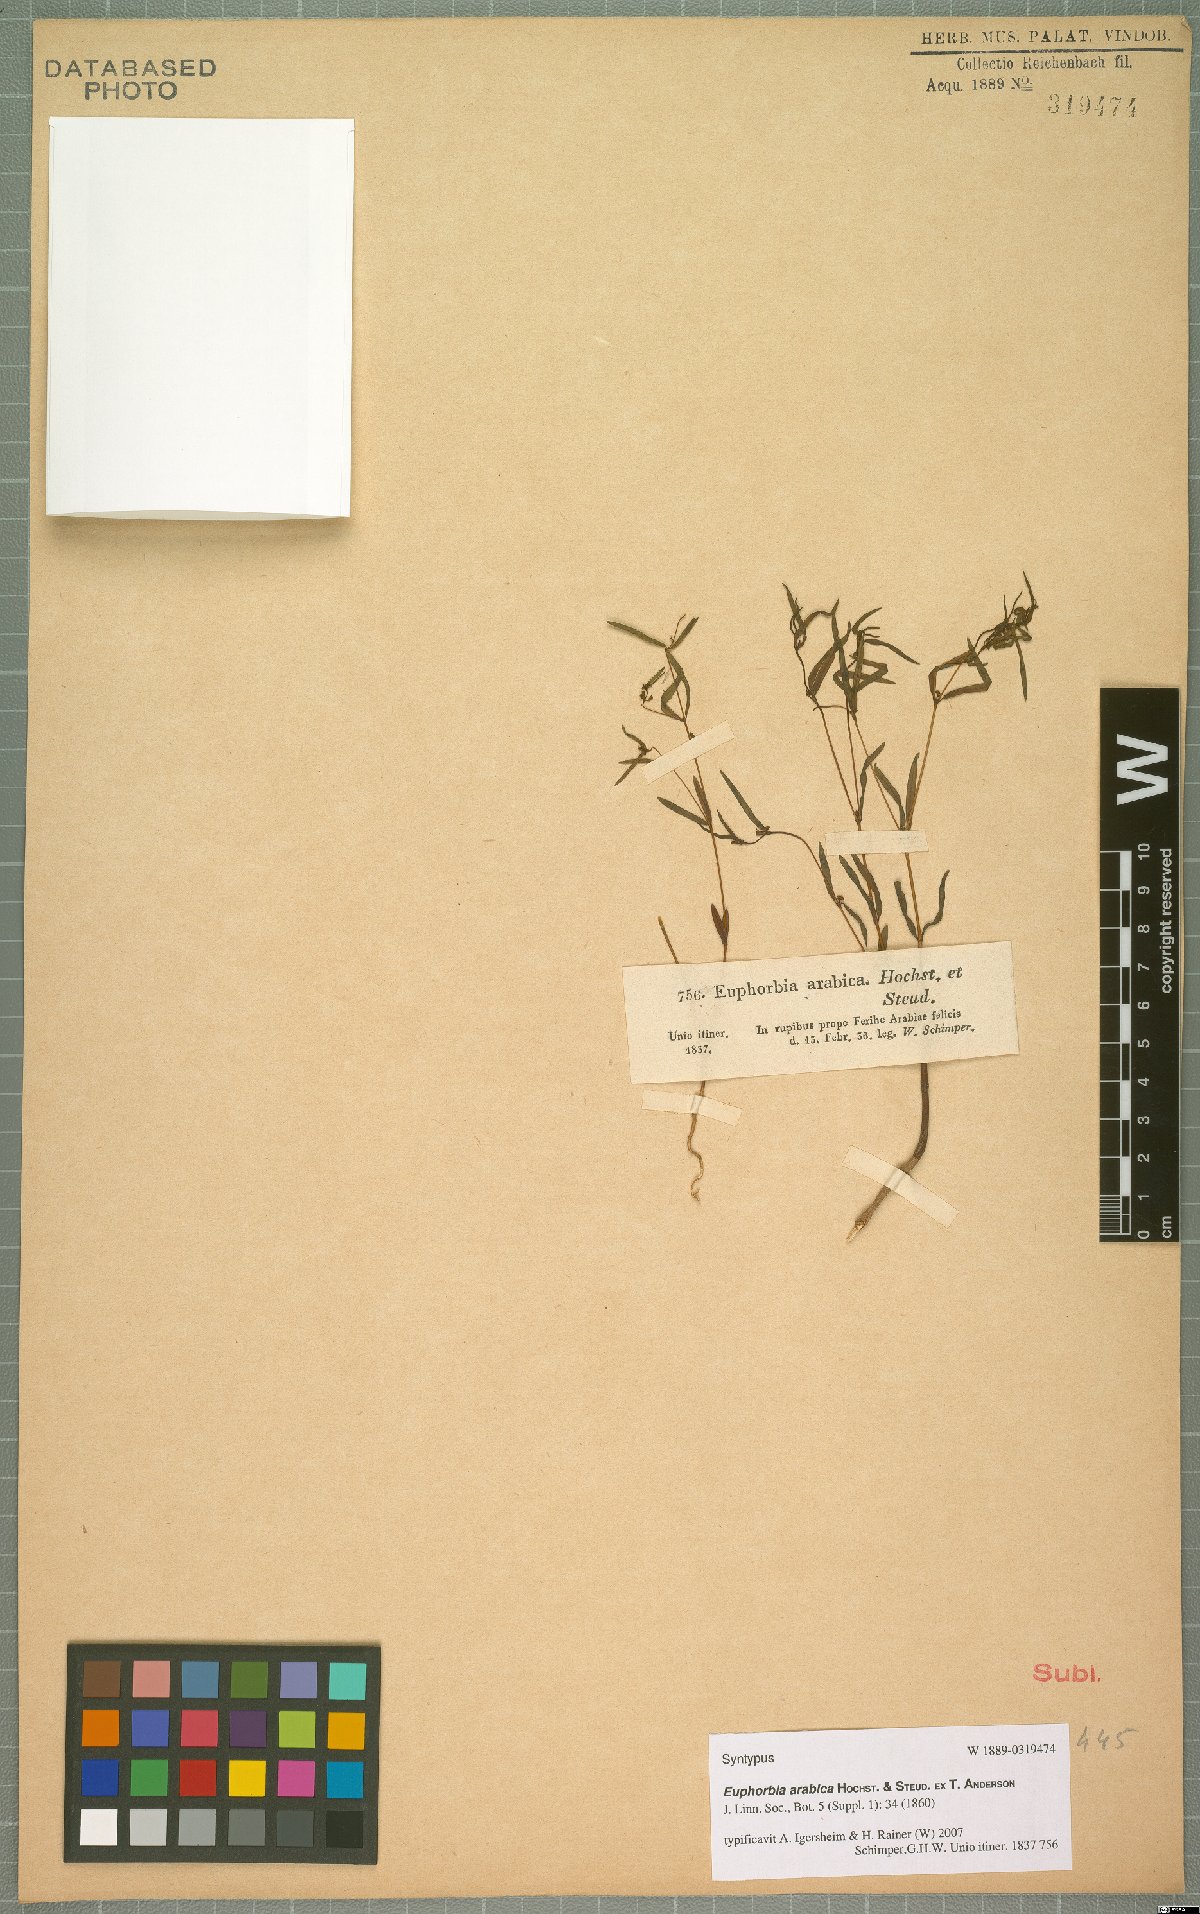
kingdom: Plantae
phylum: Tracheophyta
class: Magnoliopsida
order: Malpighiales
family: Euphorbiaceae
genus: Euphorbia
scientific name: Euphorbia arabica
